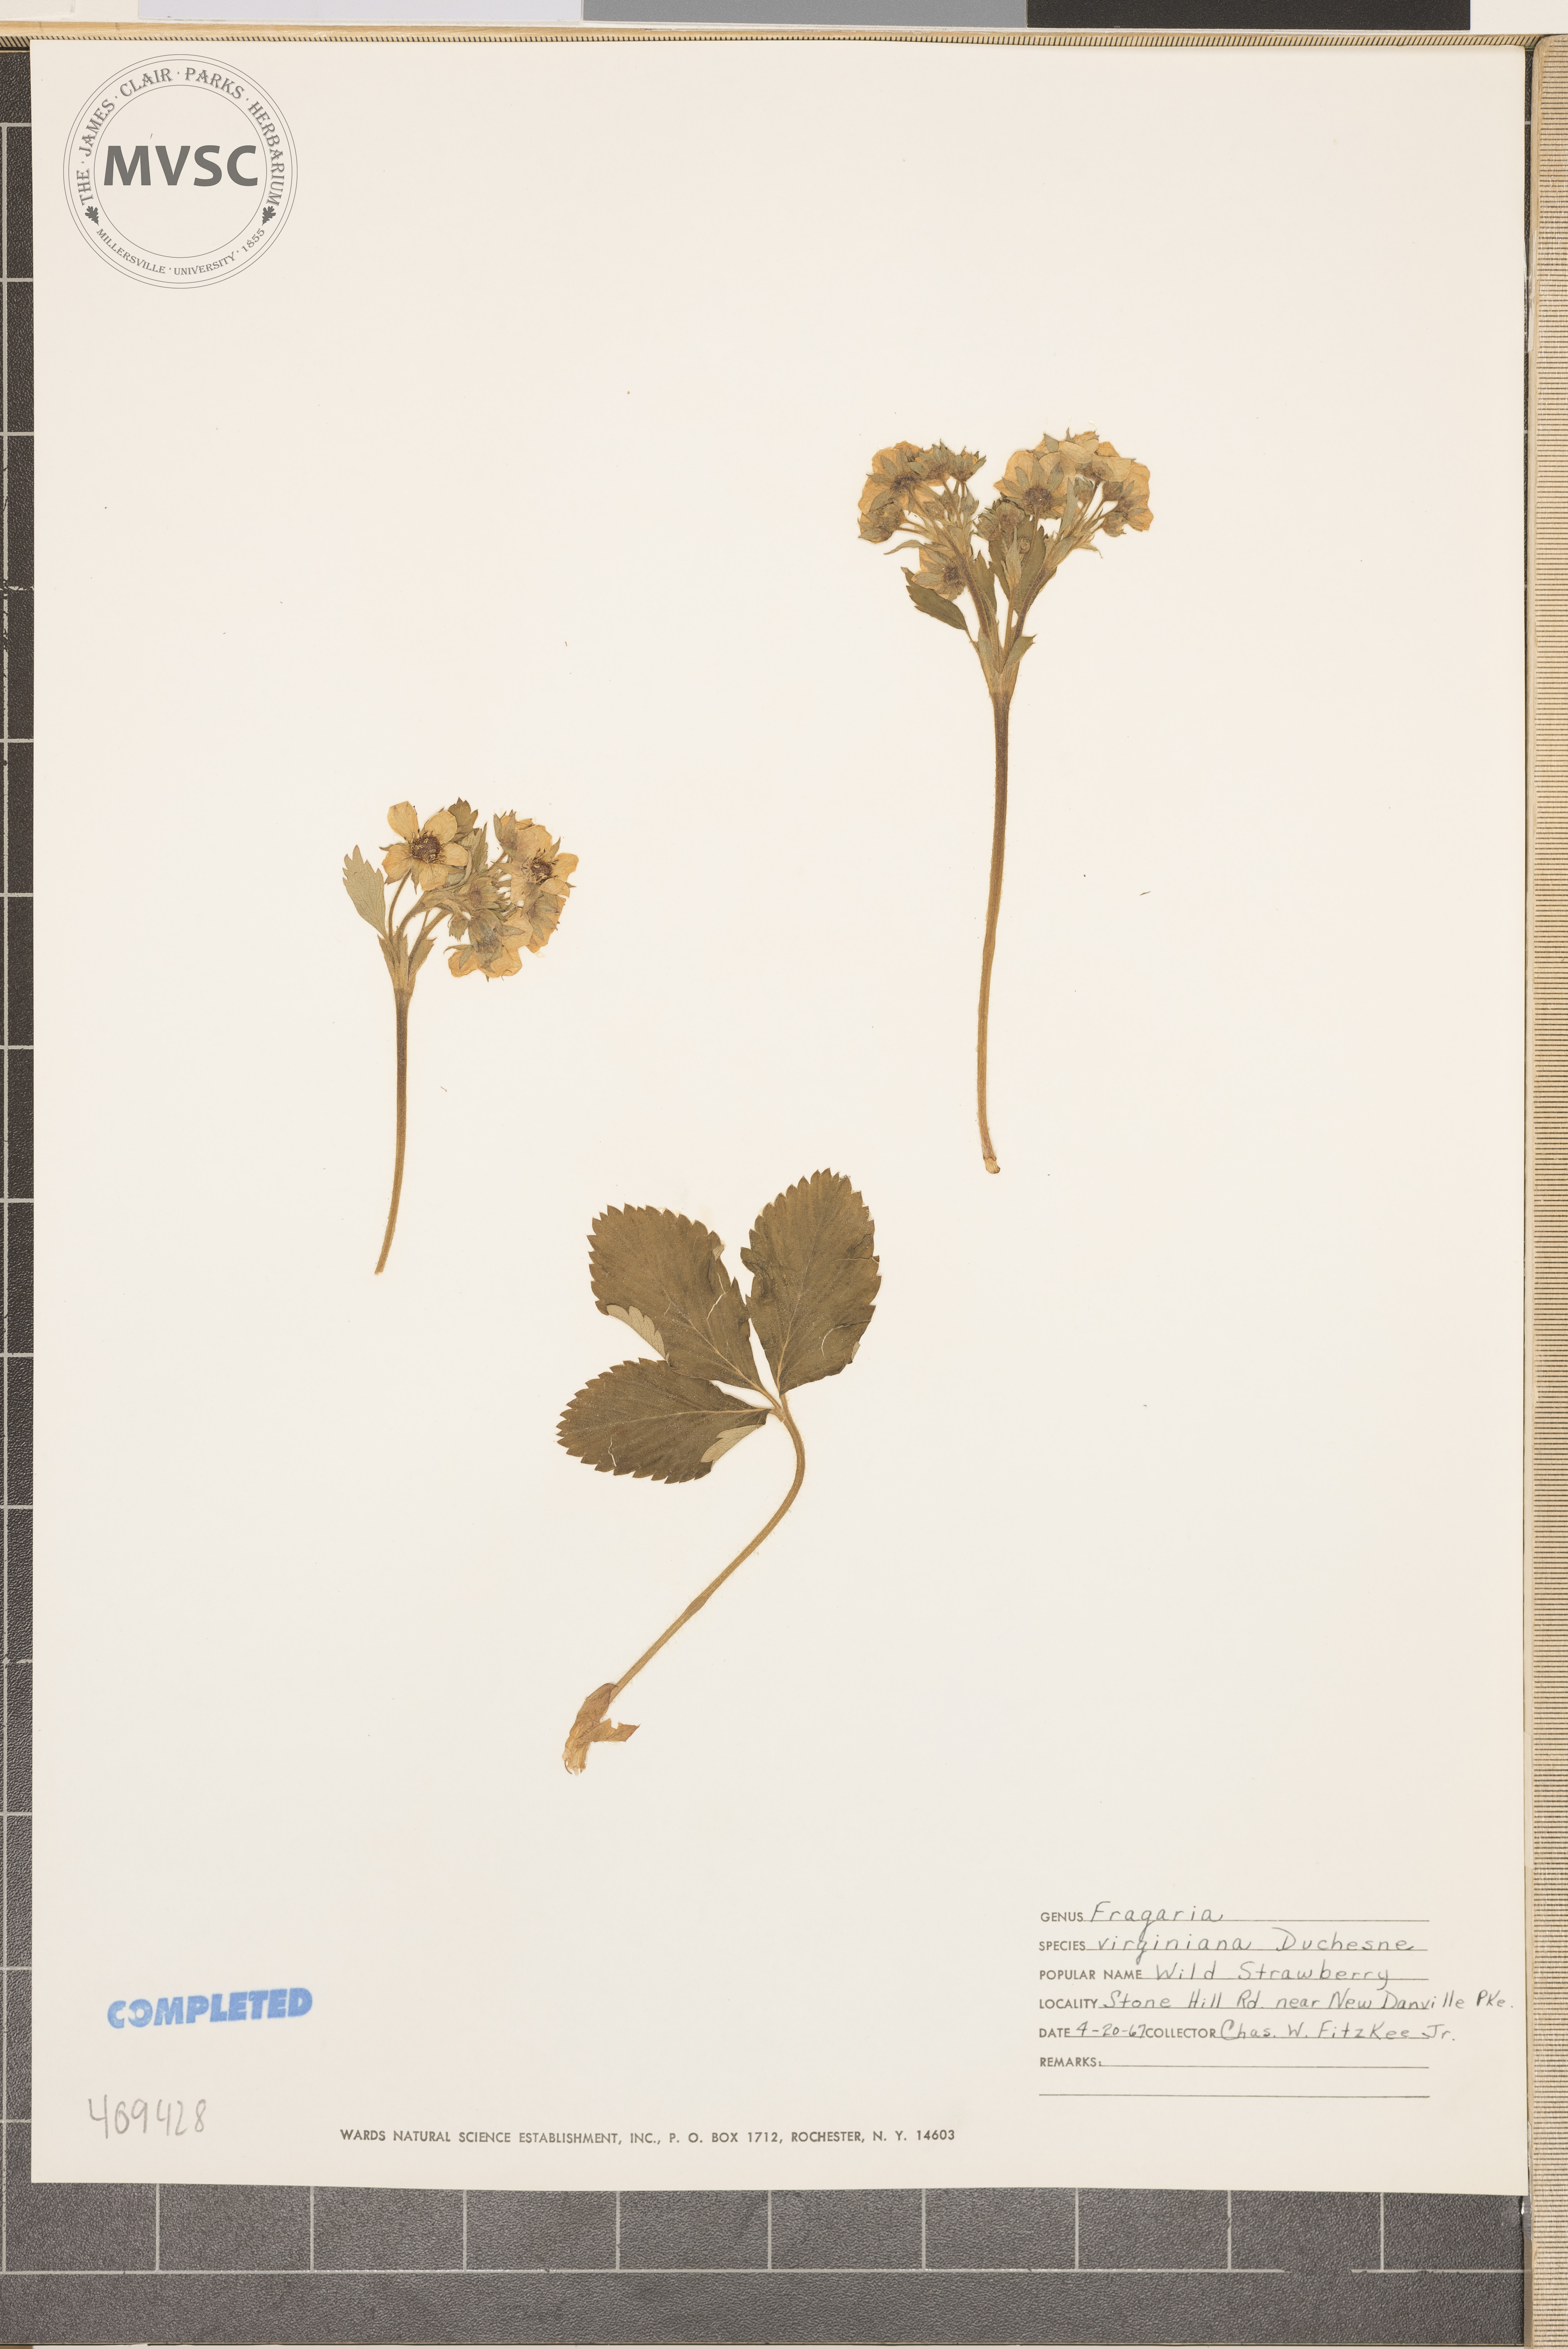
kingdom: Plantae
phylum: Tracheophyta
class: Magnoliopsida
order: Rosales
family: Rosaceae
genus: Fragaria
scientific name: Fragaria virginiana
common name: Thickleaved wild strawberry
